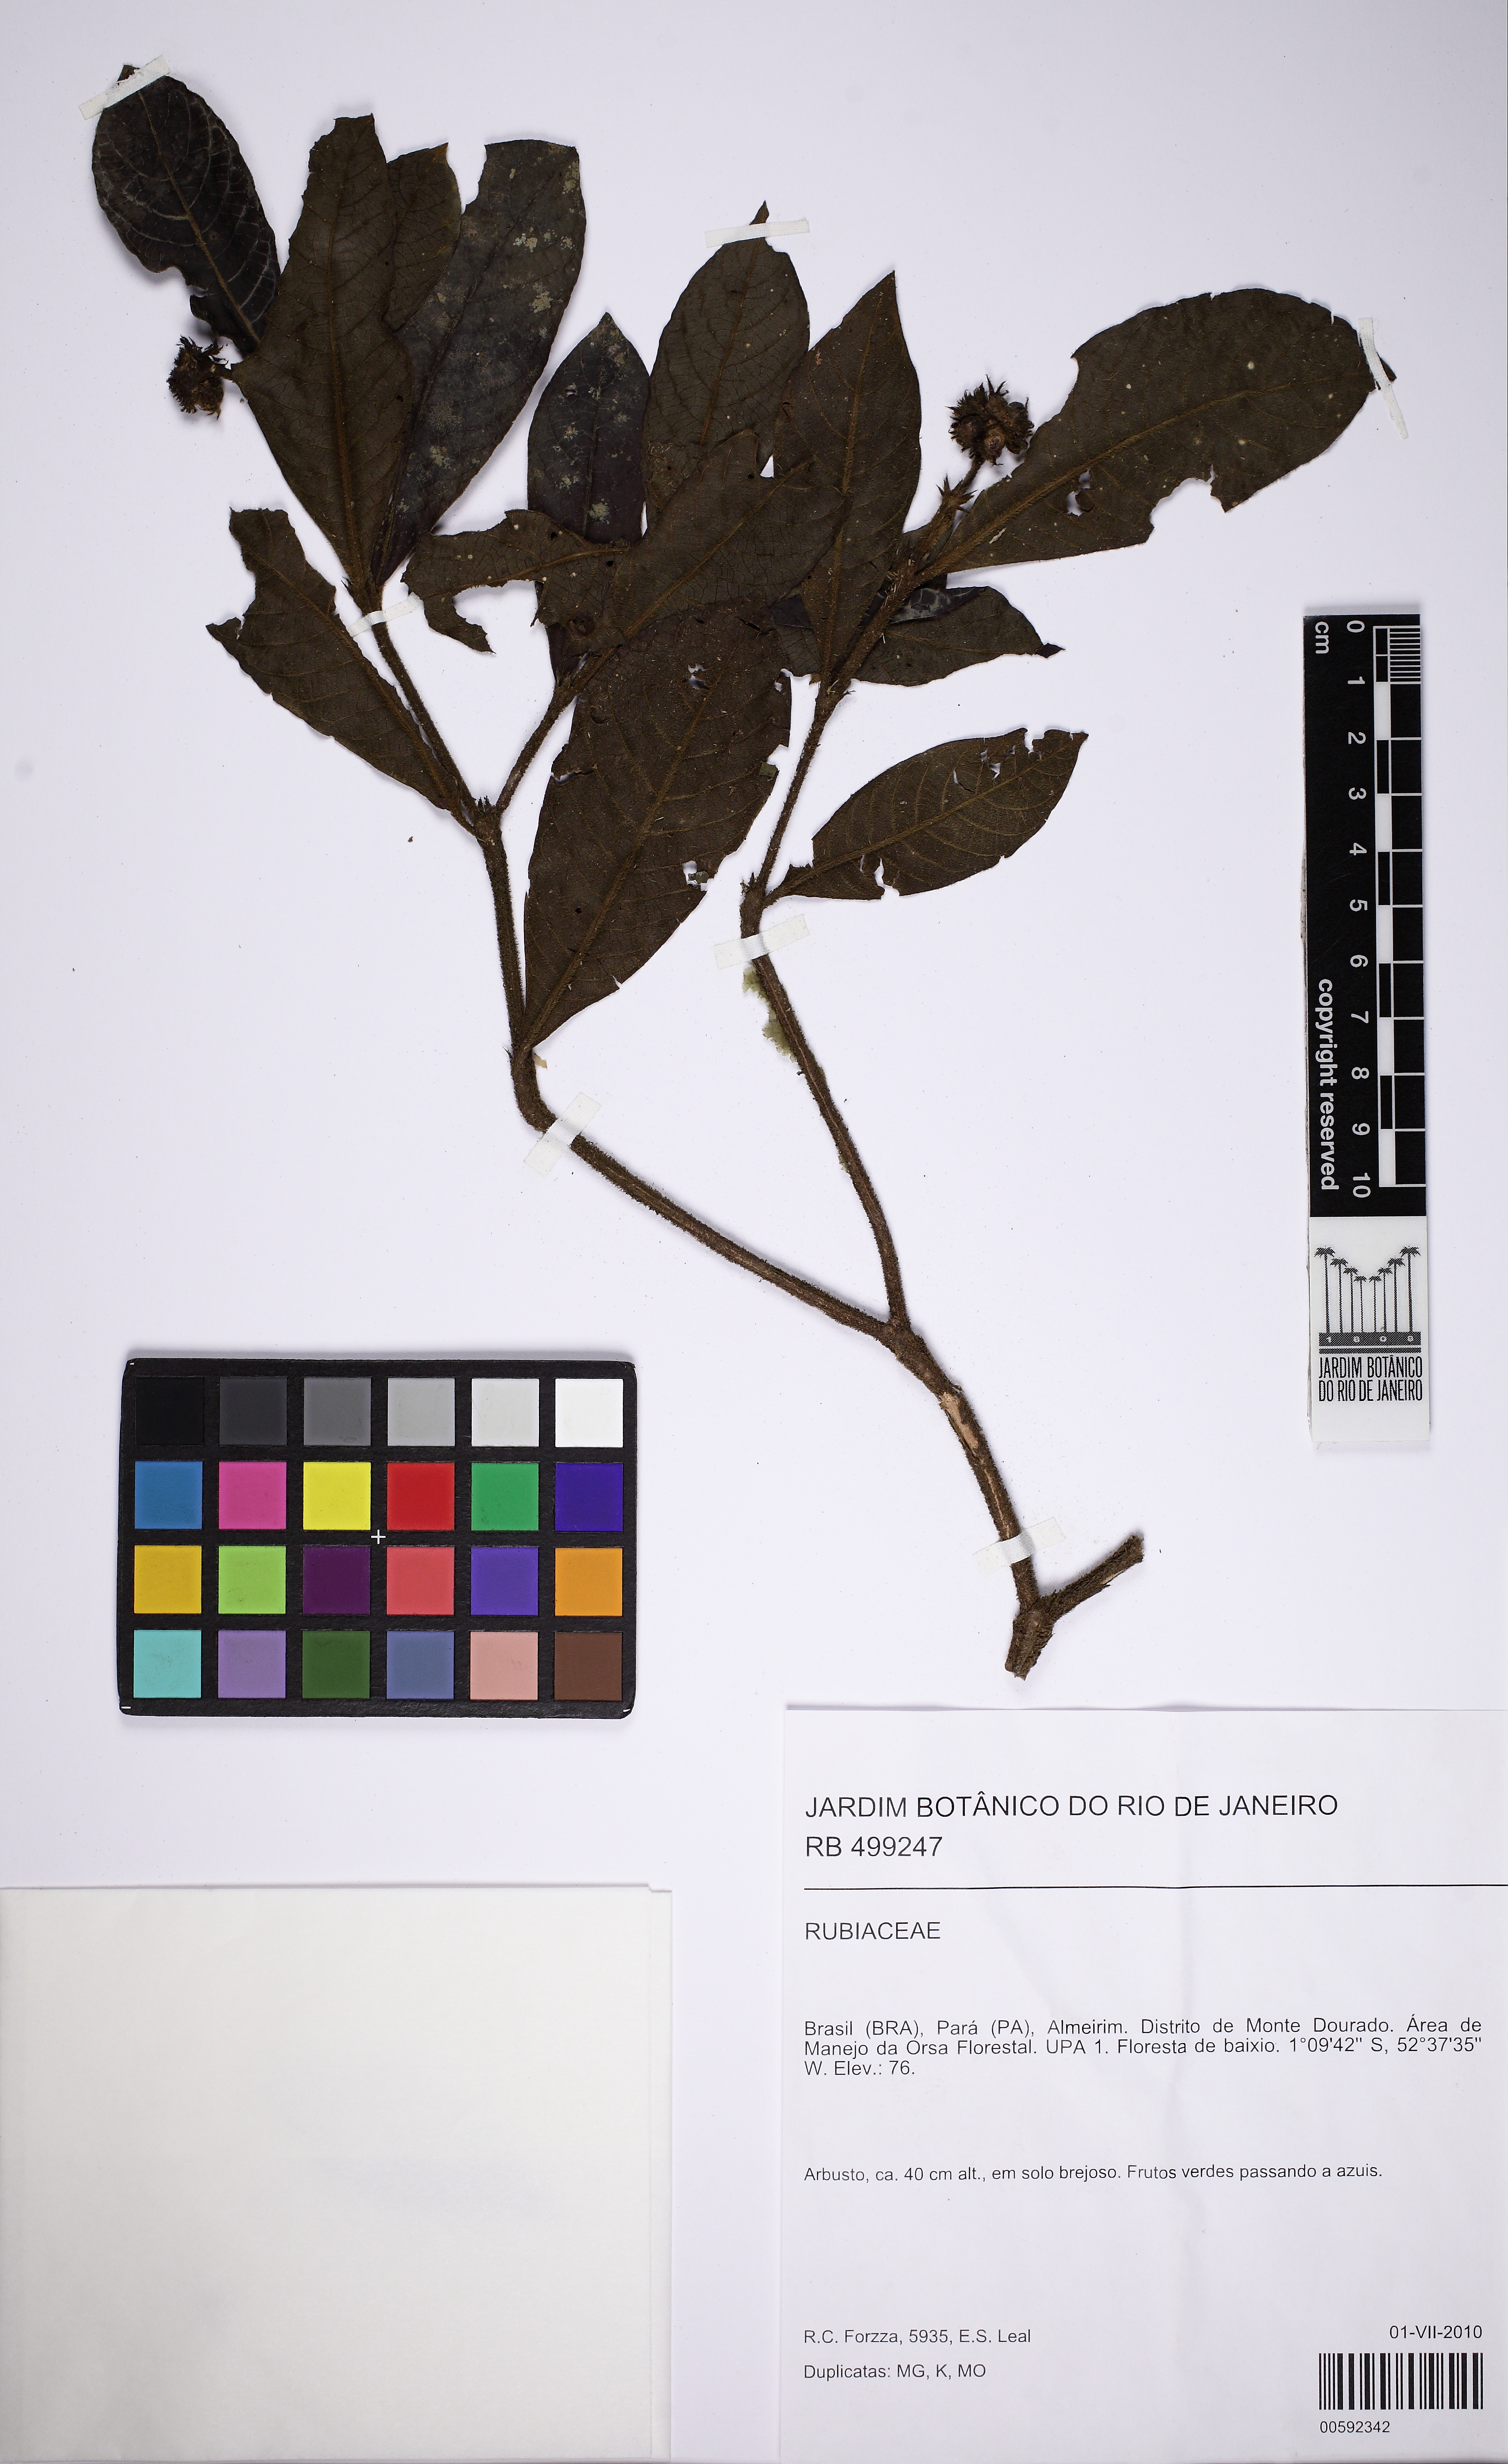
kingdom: Plantae
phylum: Tracheophyta
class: Magnoliopsida
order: Gentianales
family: Rubiaceae
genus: Psychotria
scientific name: Psychotria
